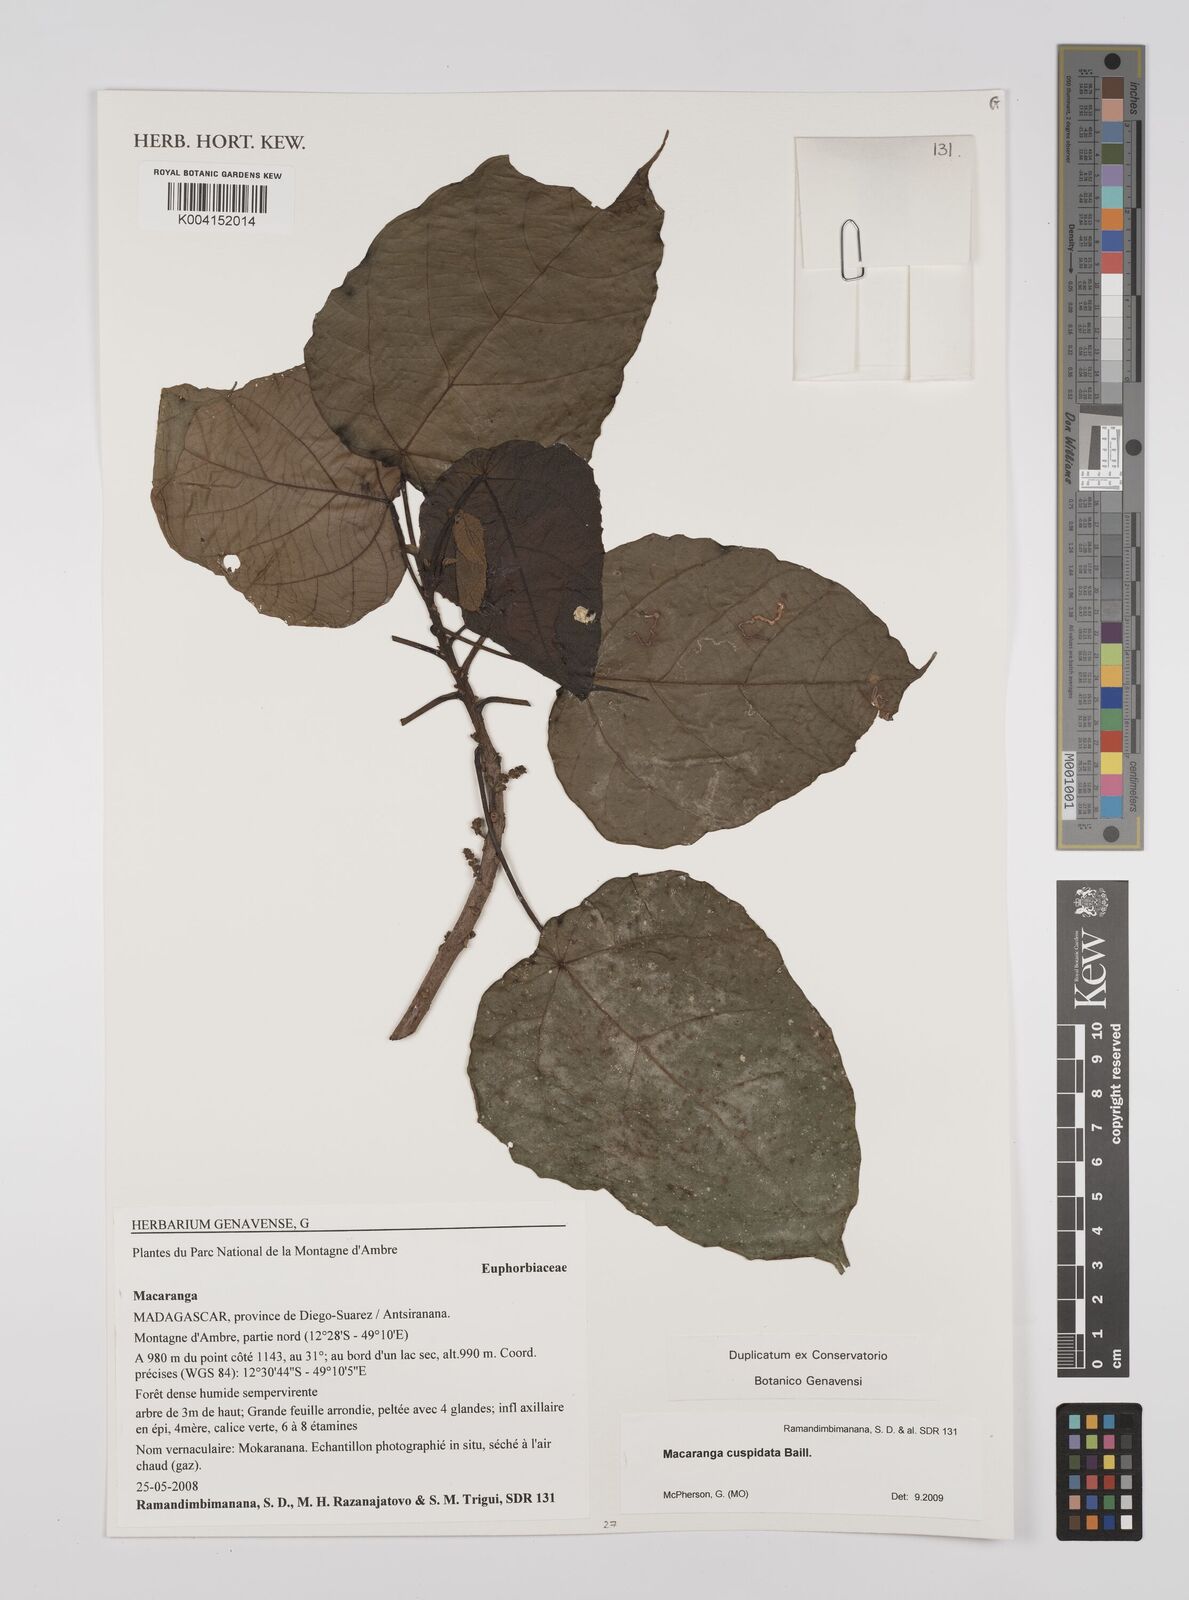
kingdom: Plantae
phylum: Tracheophyta
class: Magnoliopsida
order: Malpighiales
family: Euphorbiaceae
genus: Macaranga
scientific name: Macaranga boutonioides
